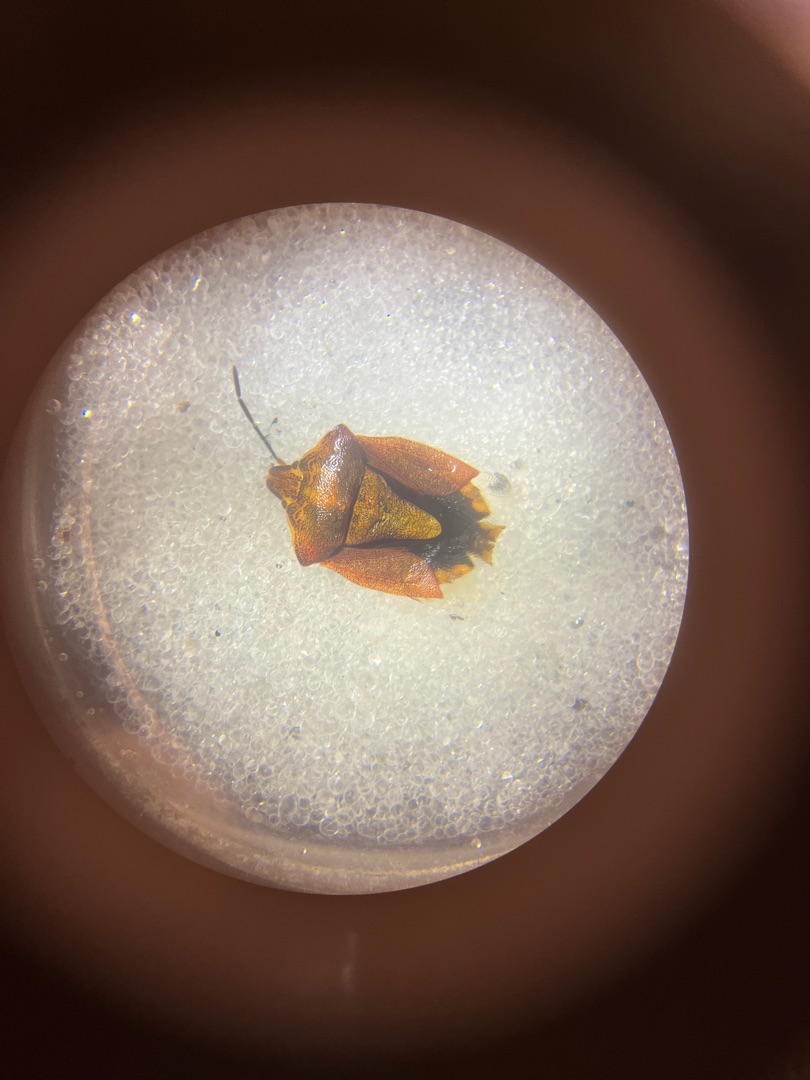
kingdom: Animalia
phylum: Arthropoda
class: Insecta
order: Hemiptera
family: Pentatomidae
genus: Carpocoris
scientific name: Carpocoris purpureipennis
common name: Purpurbredtæge
